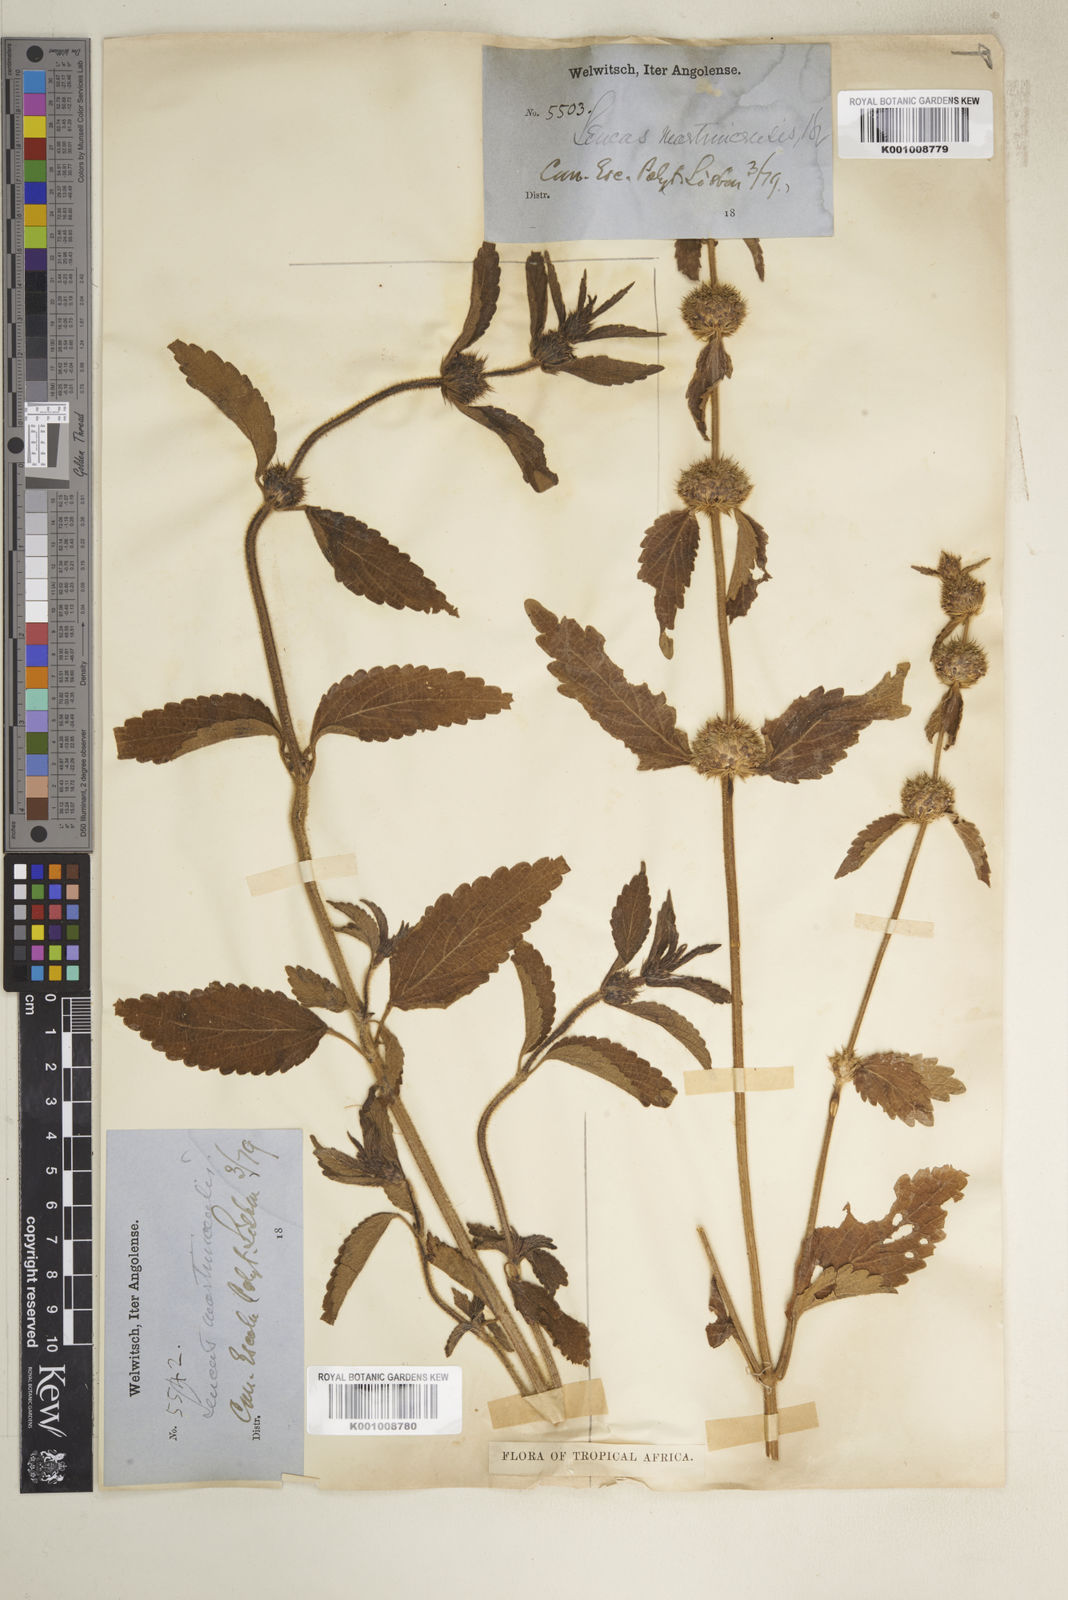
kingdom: Plantae
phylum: Tracheophyta
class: Magnoliopsida
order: Lamiales
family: Lamiaceae
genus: Leucas
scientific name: Leucas martinicensis
